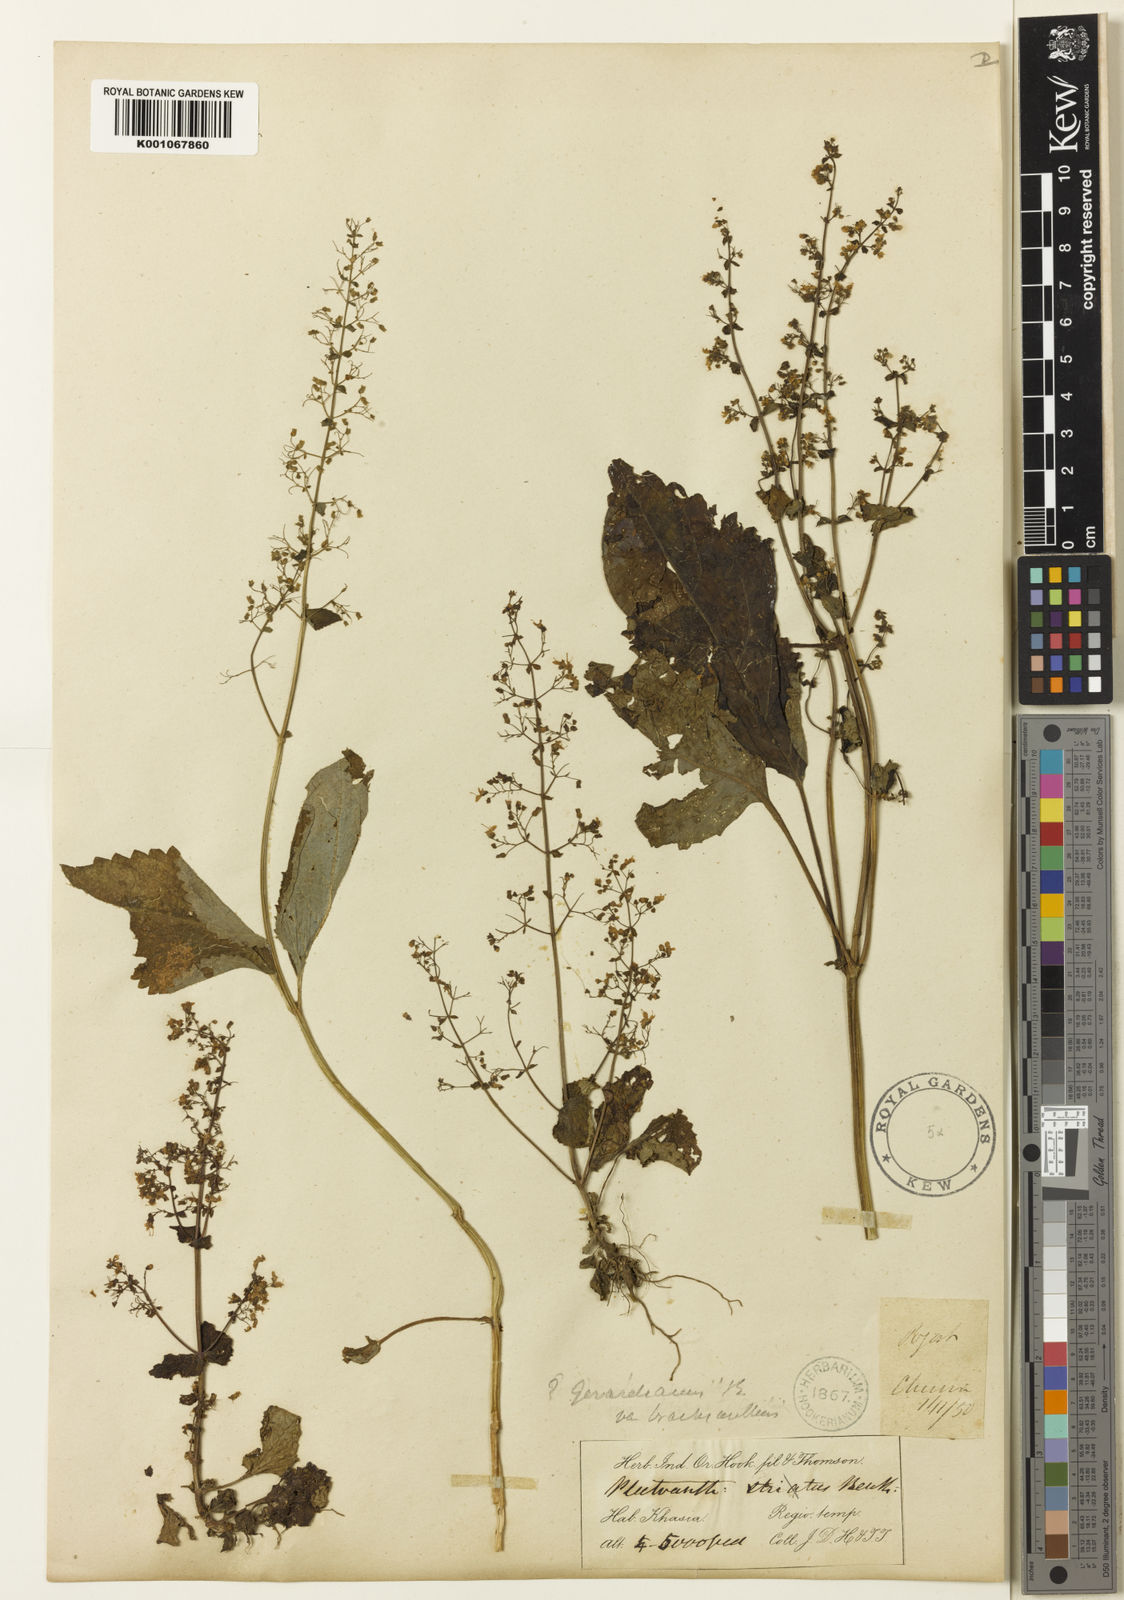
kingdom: Plantae
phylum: Tracheophyta
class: Magnoliopsida
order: Lamiales
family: Lamiaceae
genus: Isodon
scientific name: Isodon lophanthoides
